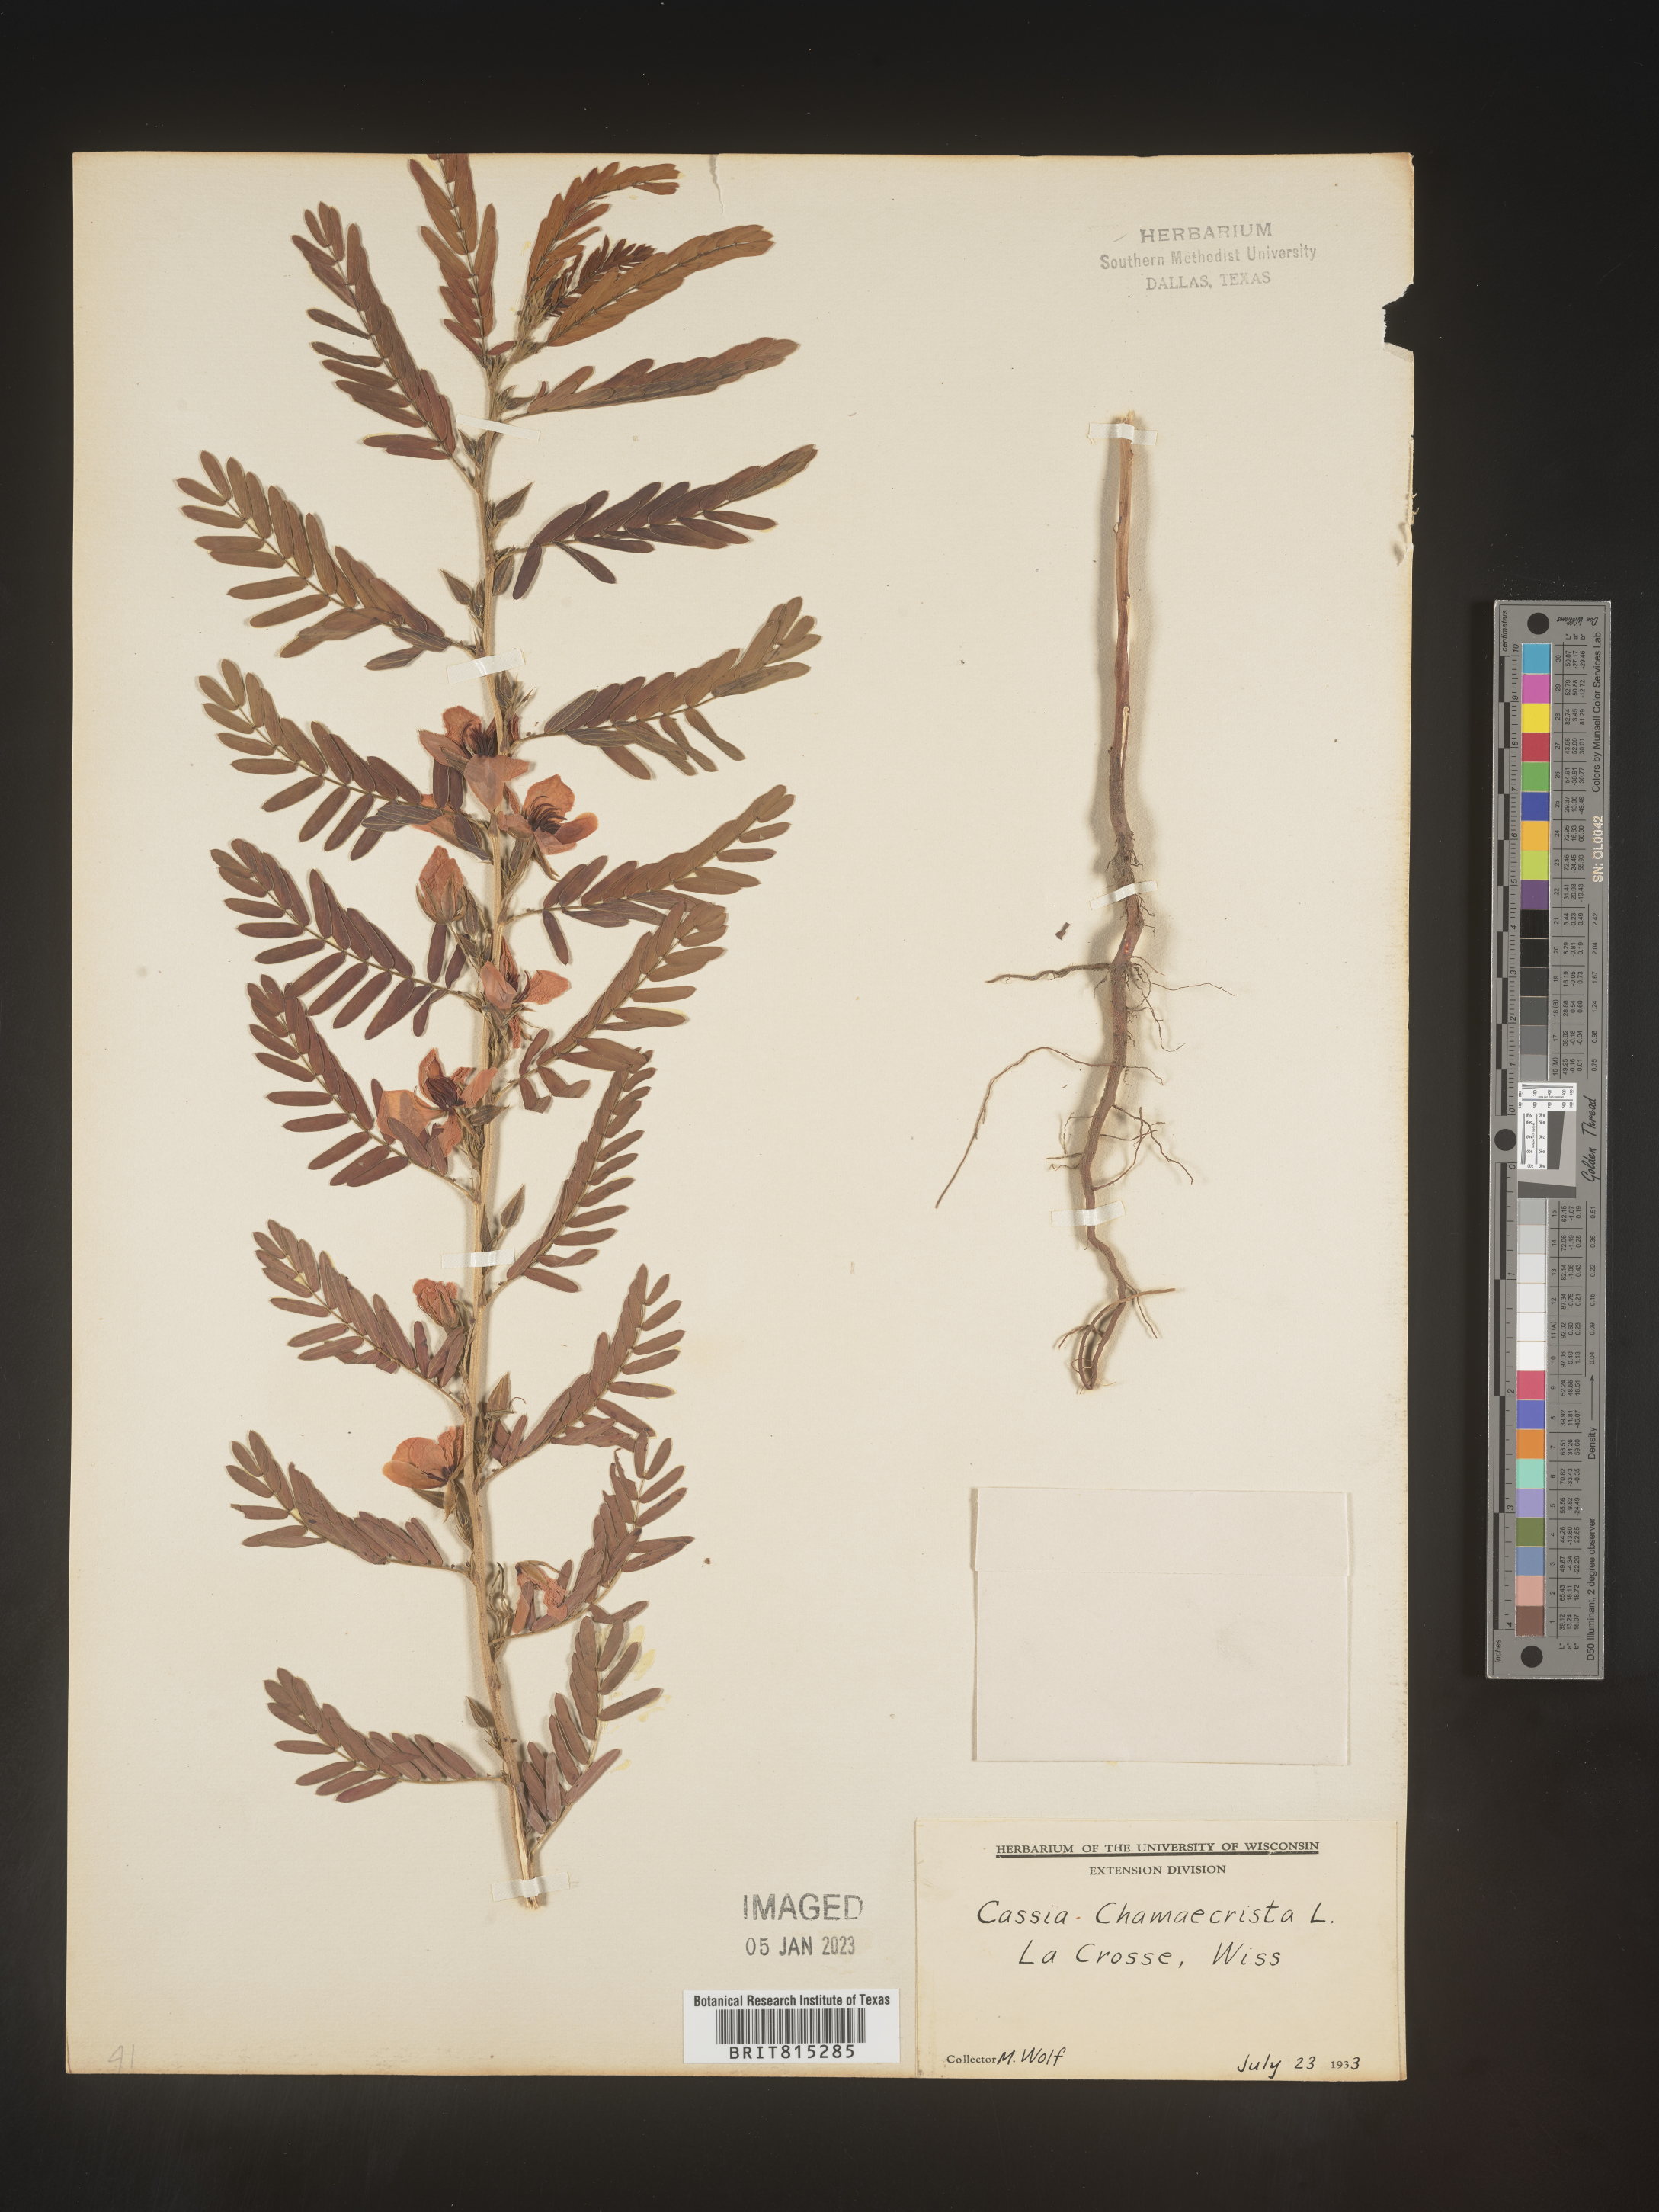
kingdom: Plantae
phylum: Tracheophyta
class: Magnoliopsida
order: Fabales
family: Fabaceae
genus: Chamaecrista
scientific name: Chamaecrista fasciculata
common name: Golden cassia
